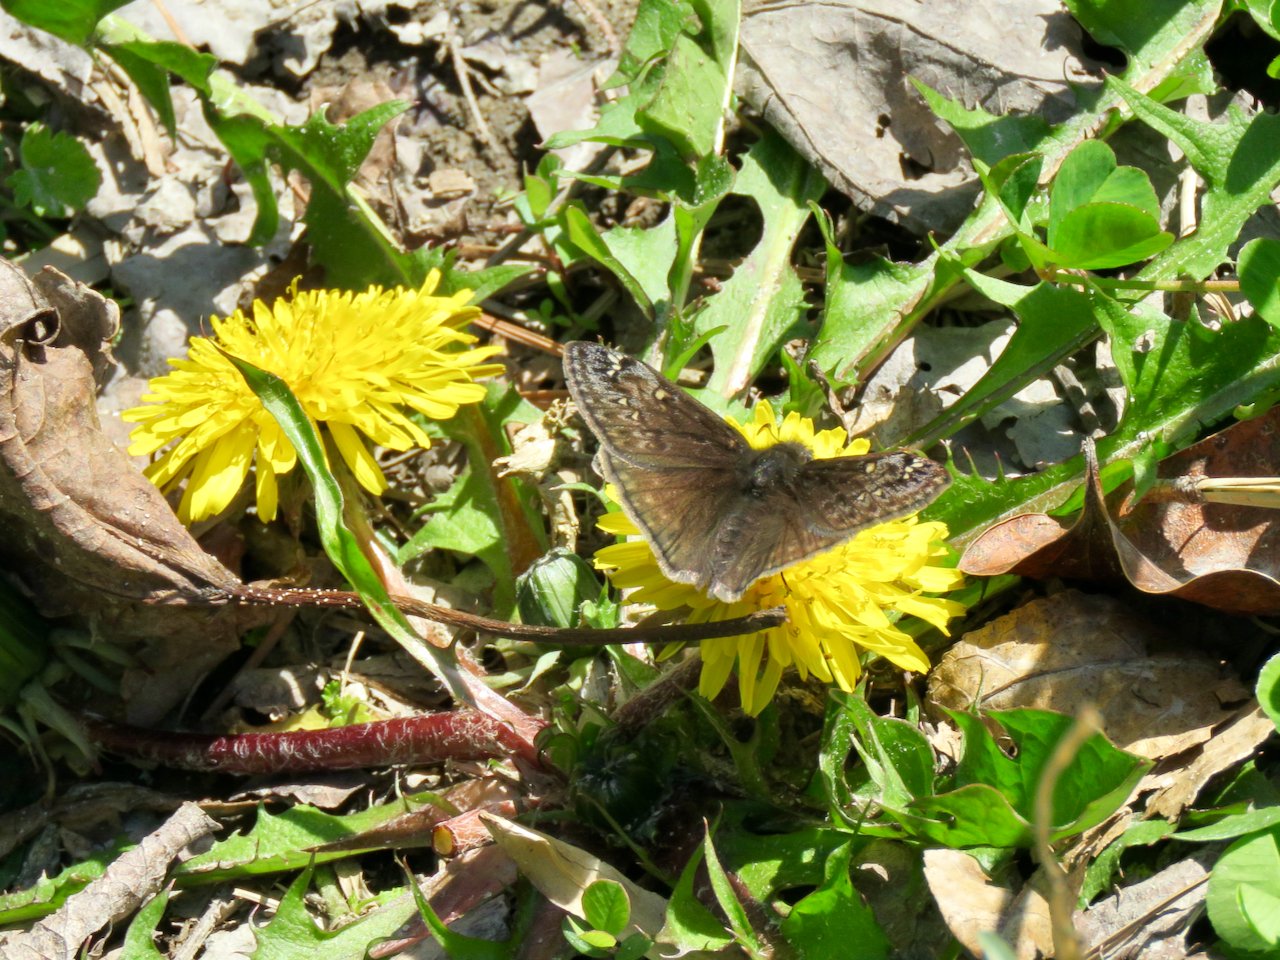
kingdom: Animalia
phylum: Arthropoda
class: Insecta
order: Lepidoptera
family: Hesperiidae
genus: Gesta
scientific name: Gesta
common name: Juvenal's Duskywing
